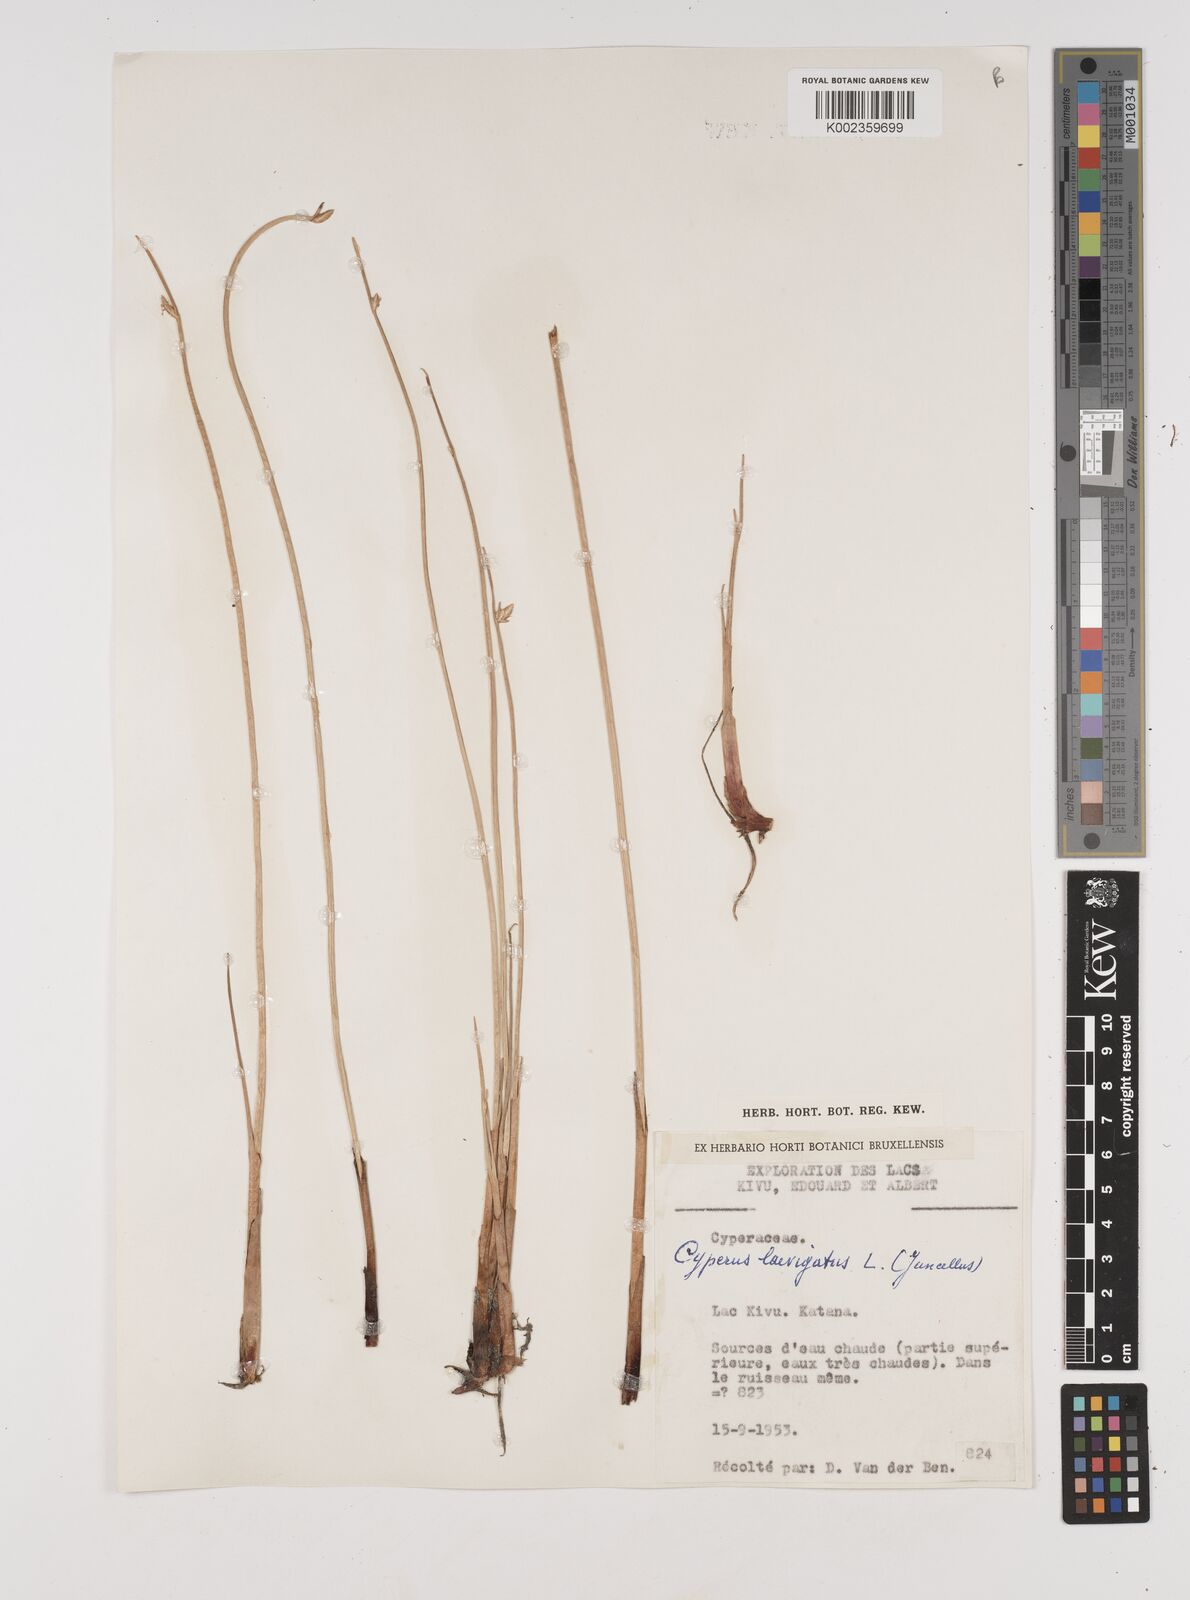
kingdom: Plantae
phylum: Tracheophyta
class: Liliopsida
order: Poales
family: Cyperaceae
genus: Cyperus
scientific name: Cyperus laevigatus
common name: Smooth flat sedge
